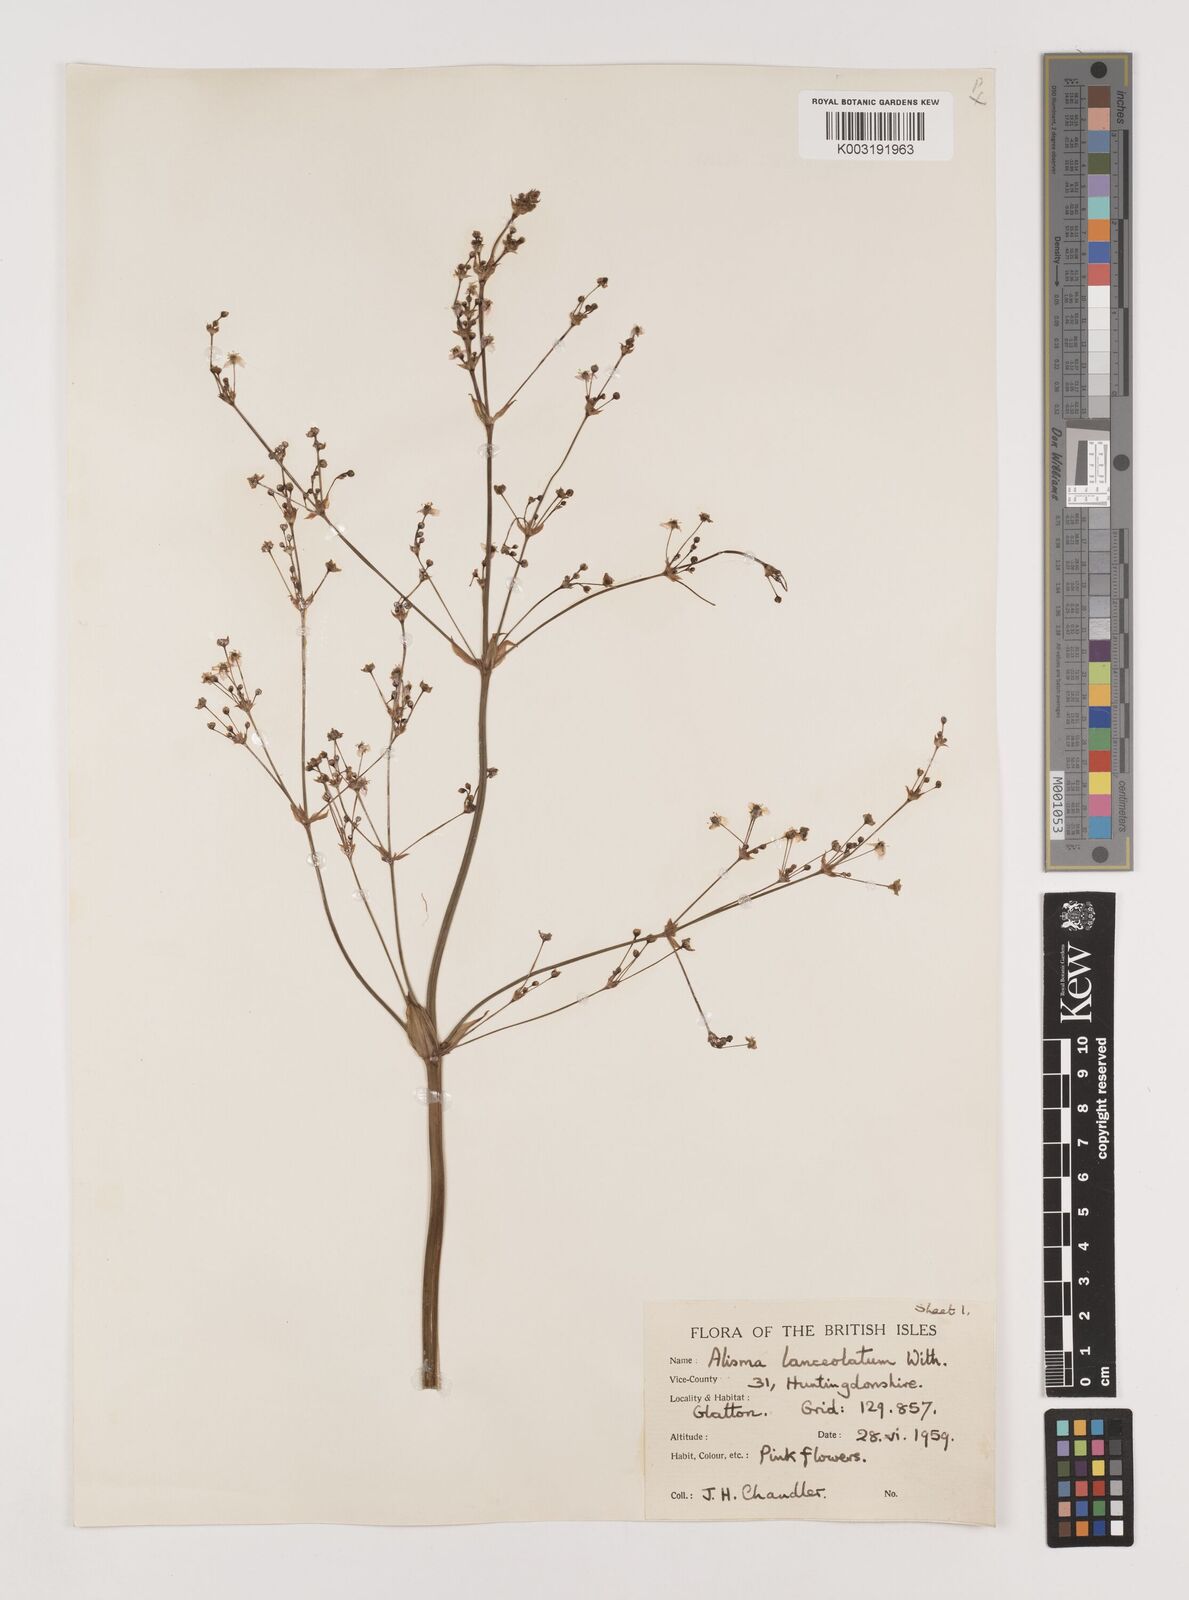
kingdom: Plantae
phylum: Tracheophyta
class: Liliopsida
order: Alismatales
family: Alismataceae
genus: Alisma
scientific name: Alisma lanceolatum
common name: Narrow-leaved water-plantain
